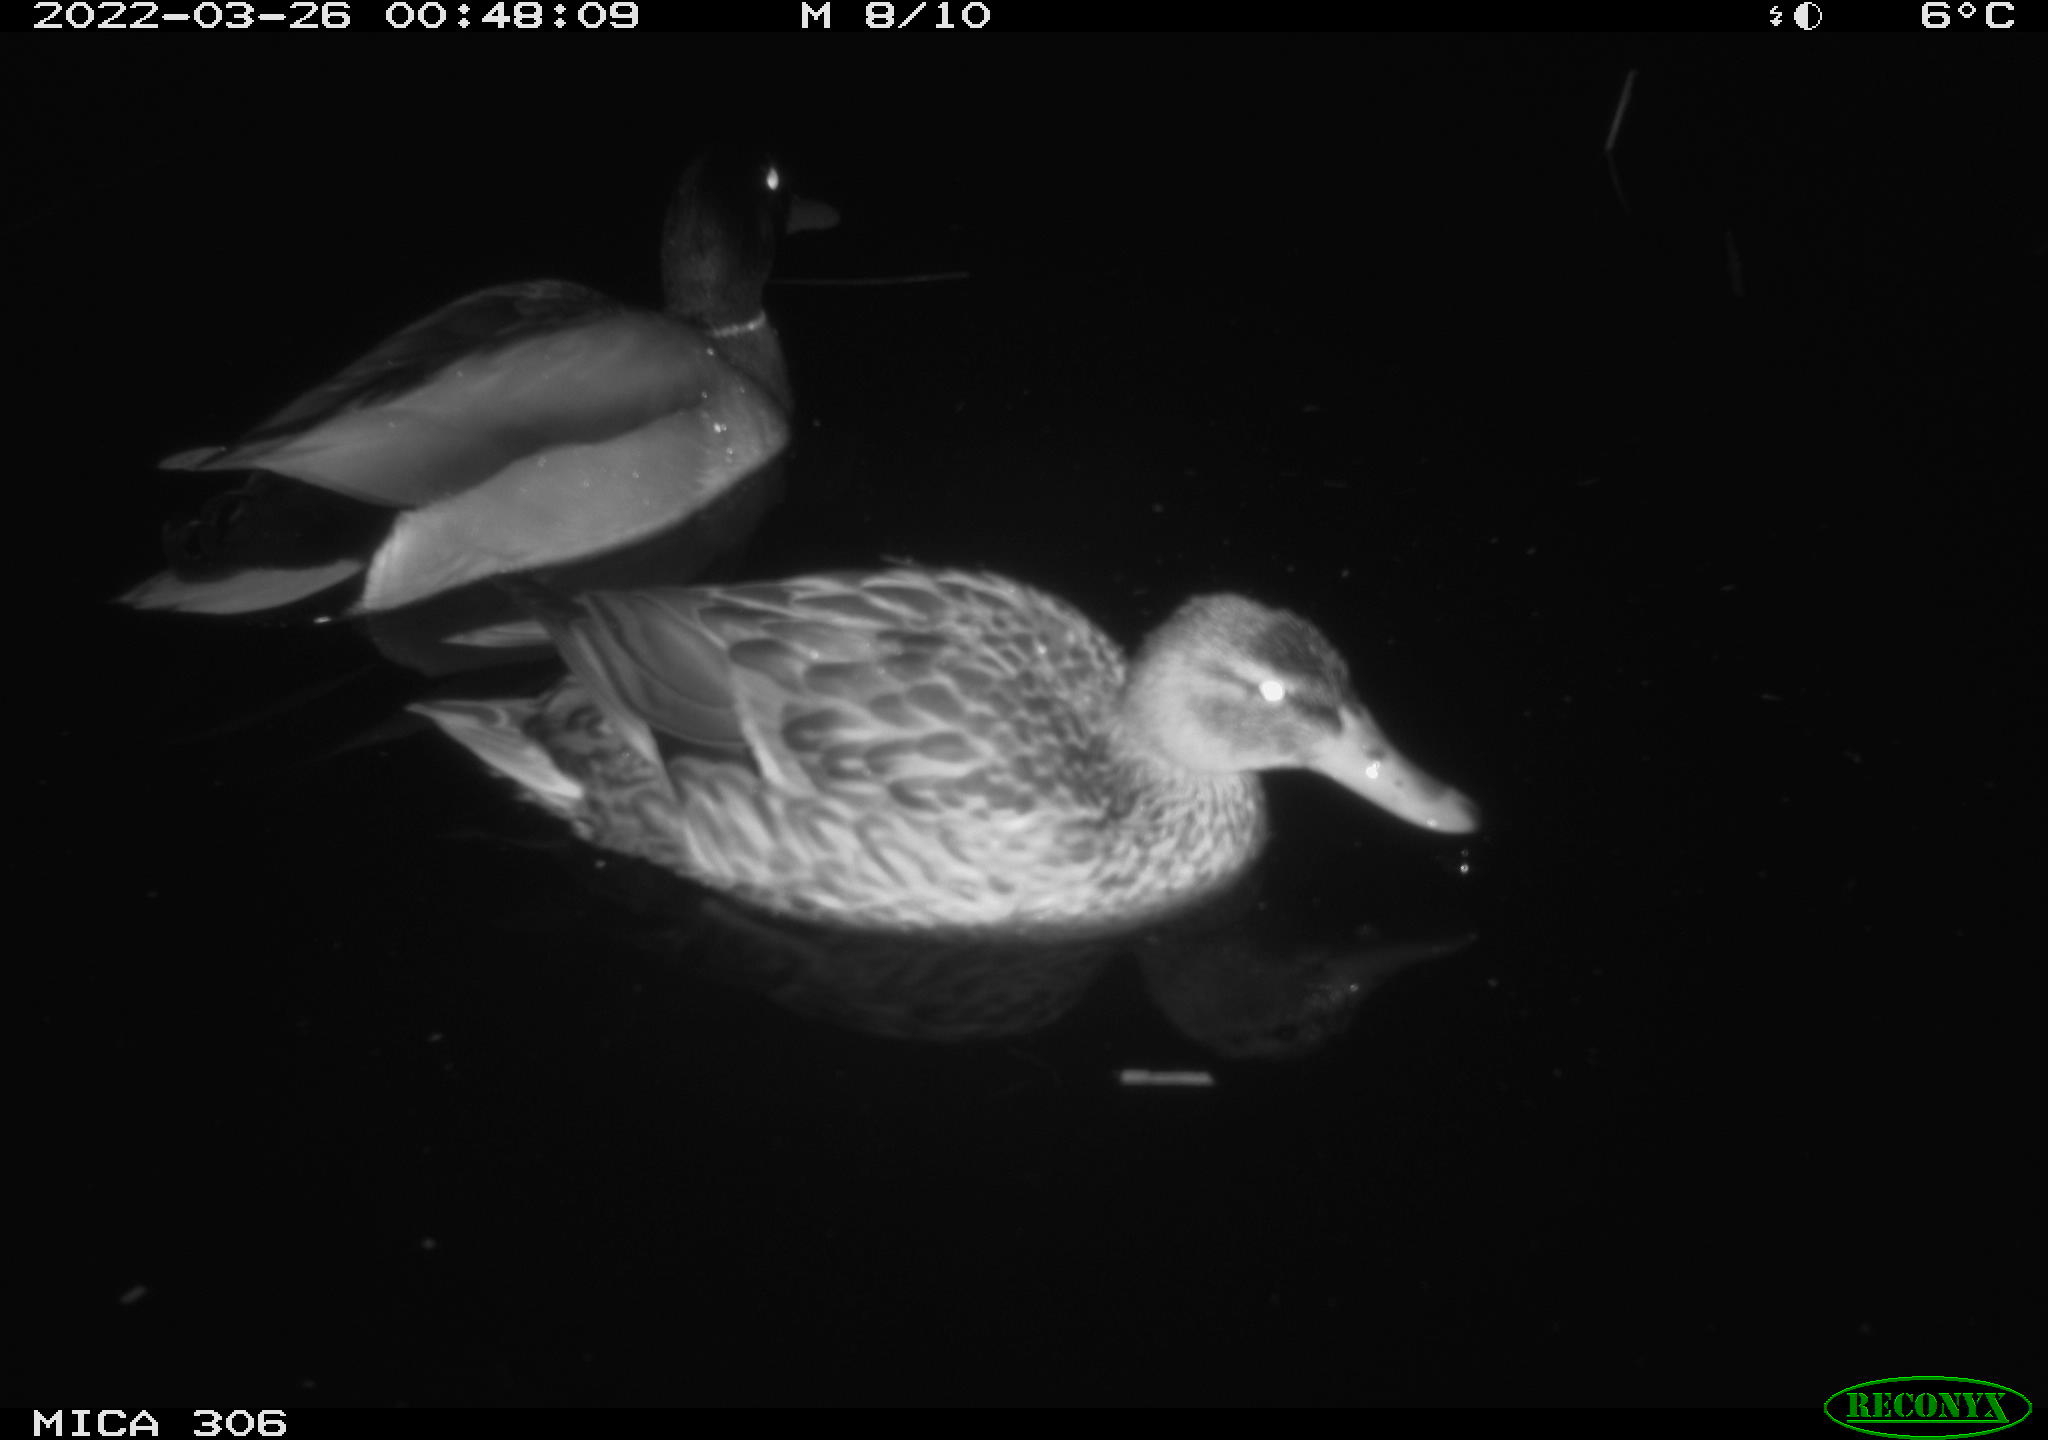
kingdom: Animalia
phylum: Chordata
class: Aves
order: Anseriformes
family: Anatidae
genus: Anas
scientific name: Anas
